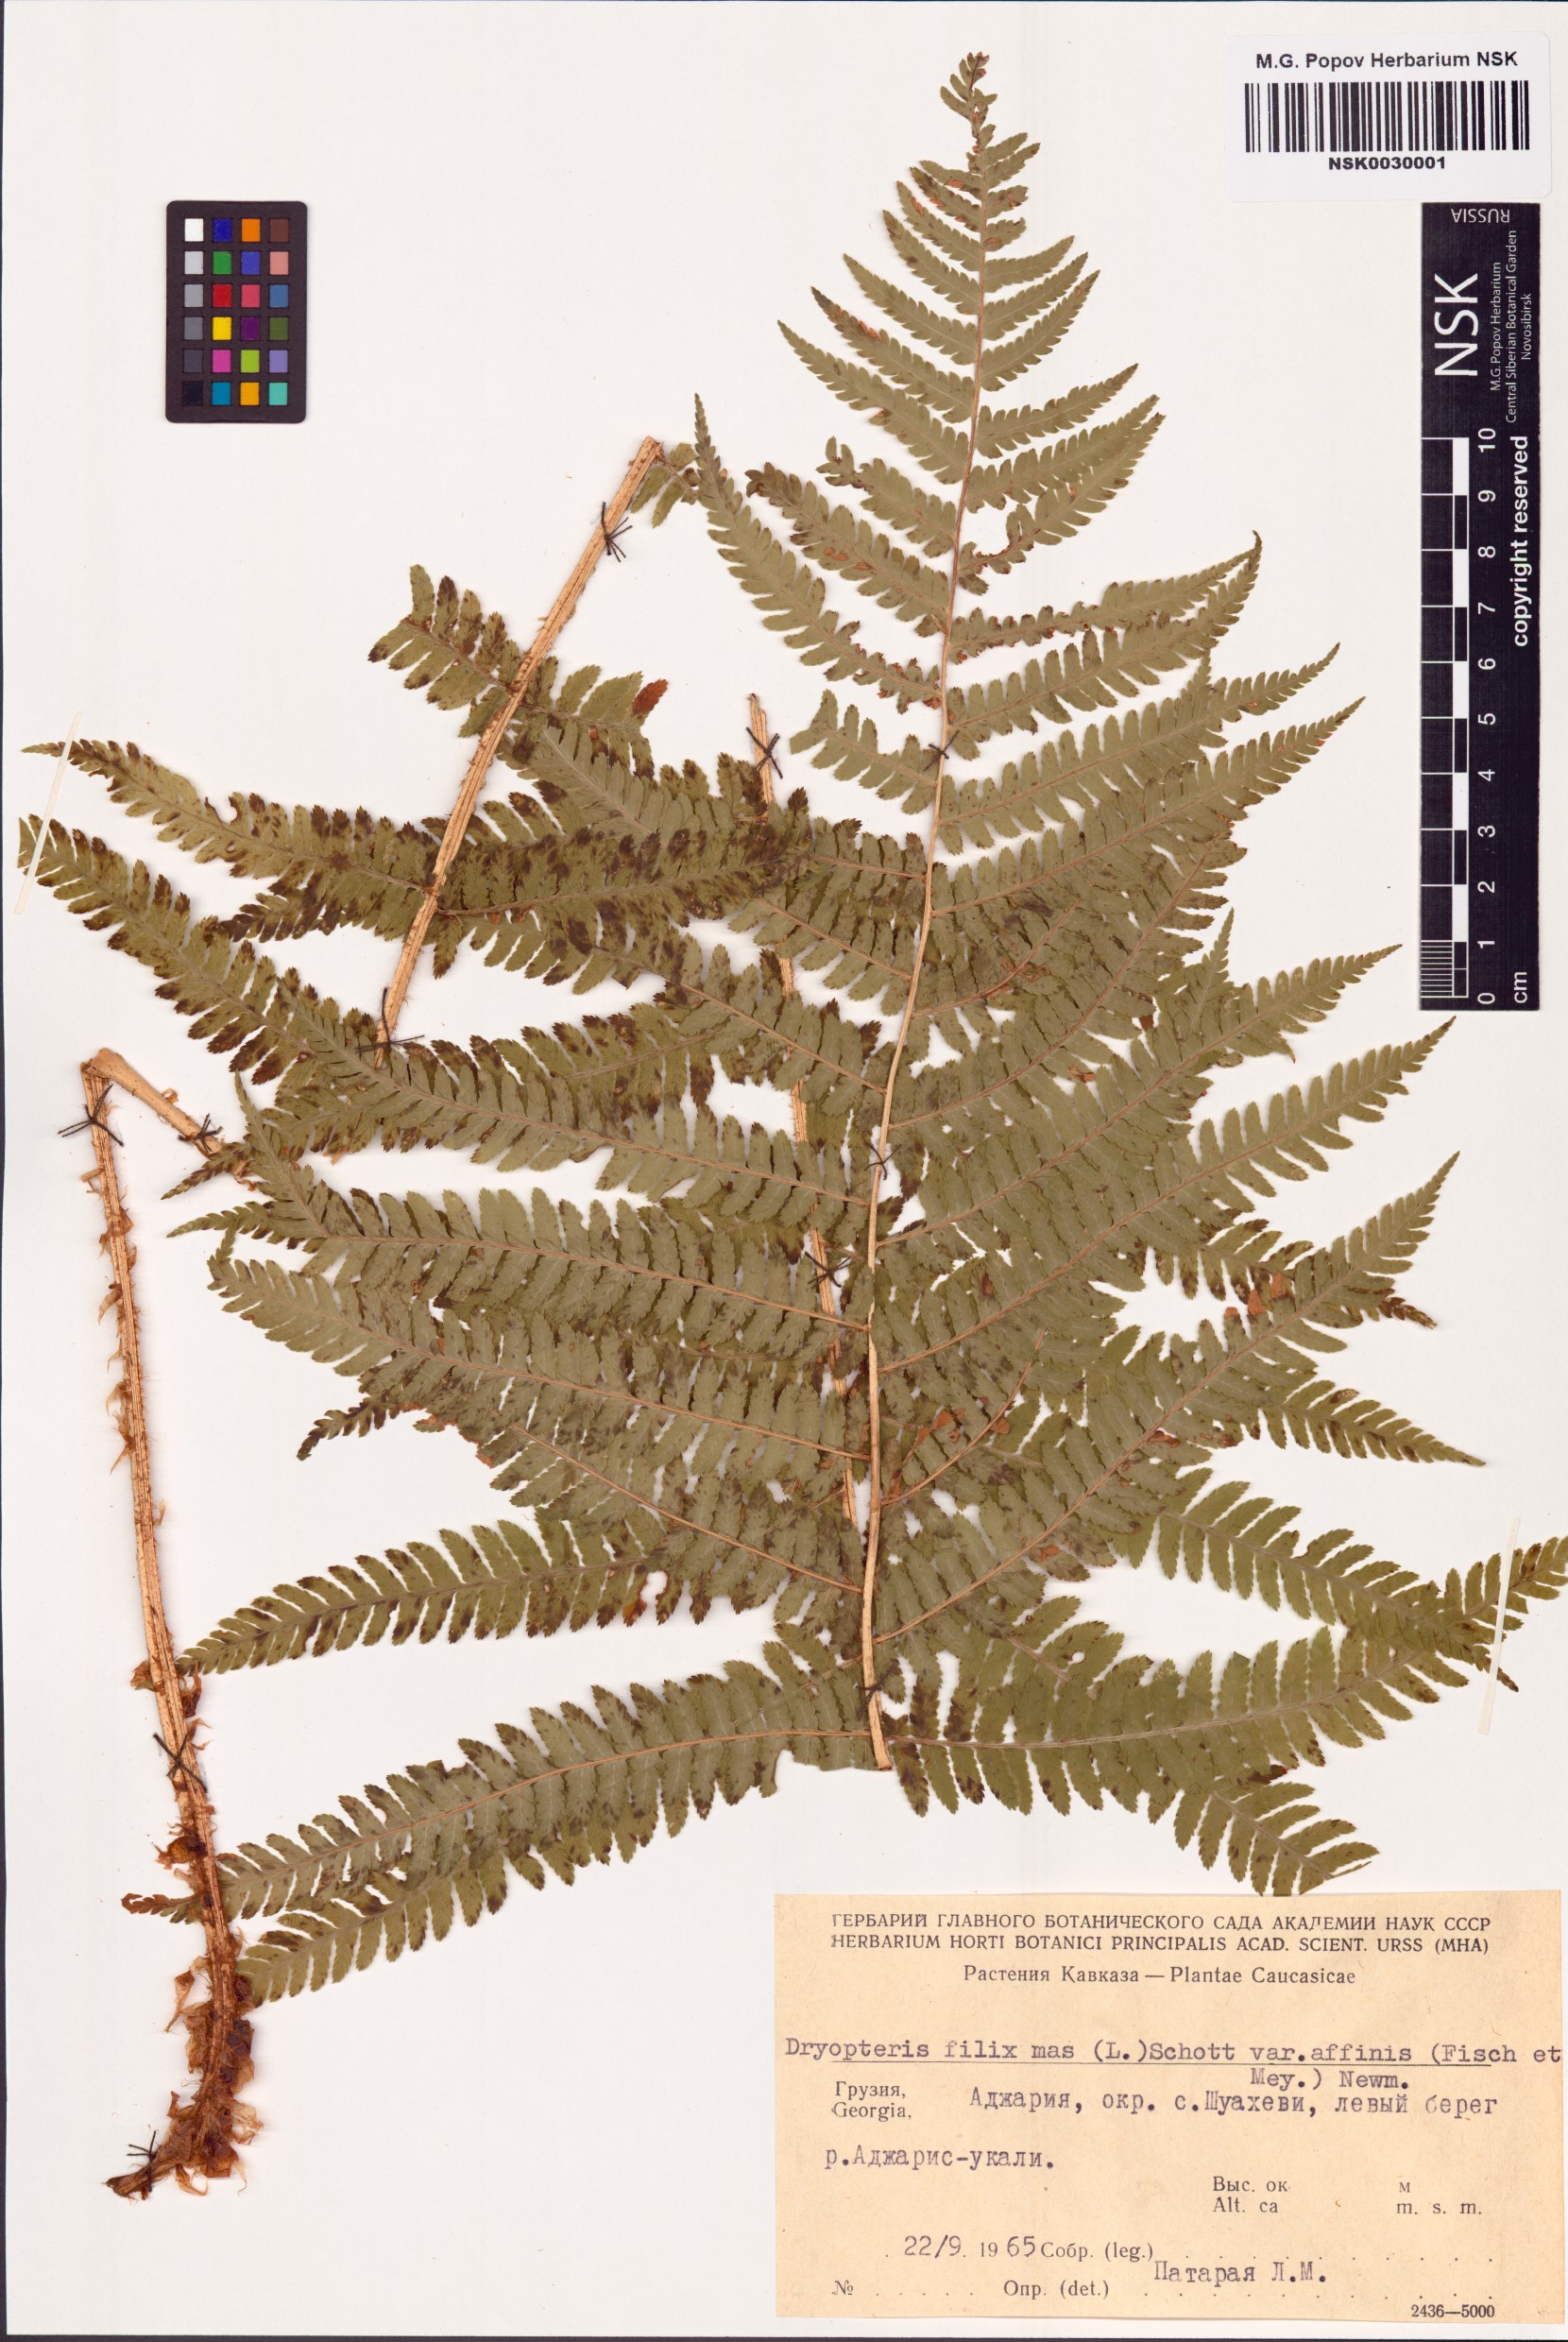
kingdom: Plantae
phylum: Tracheophyta
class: Polypodiopsida
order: Polypodiales
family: Dryopteridaceae
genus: Dryopteris
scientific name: Dryopteris caucasica
